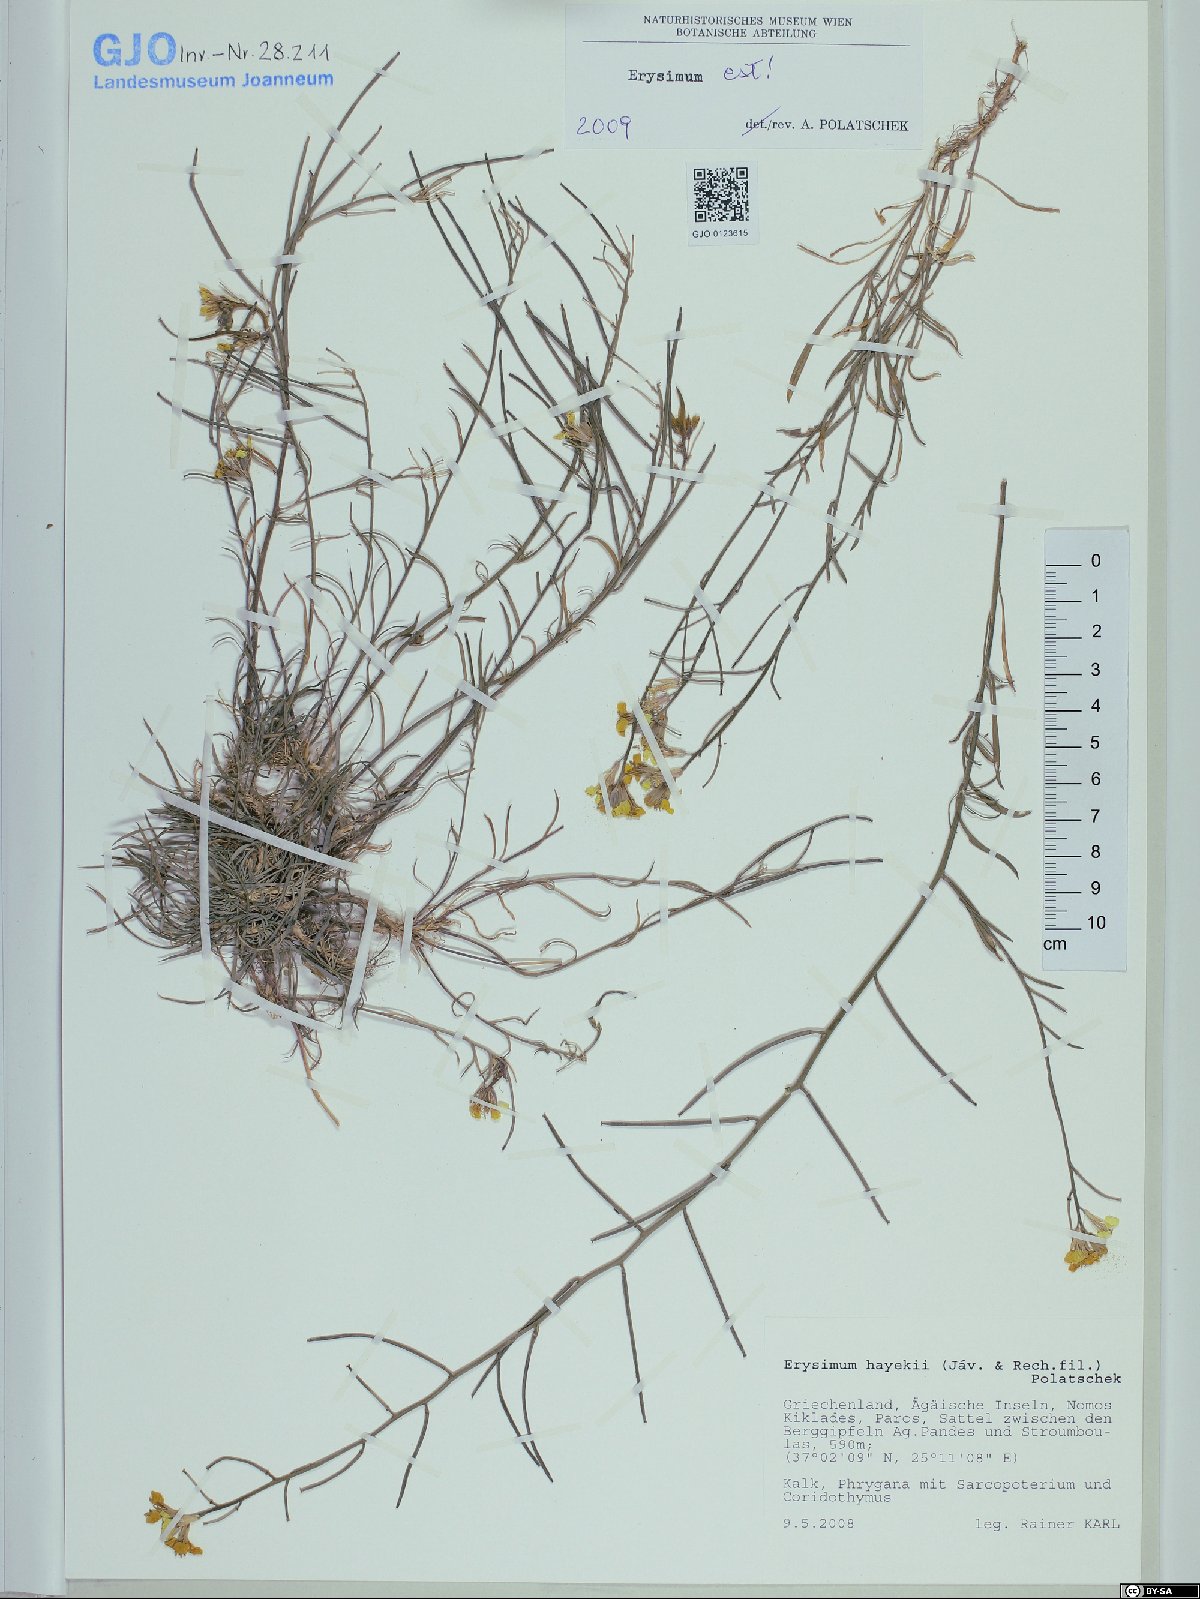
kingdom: Plantae
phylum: Tracheophyta
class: Magnoliopsida
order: Brassicales
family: Brassicaceae
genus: Erysimum
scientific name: Erysimum pusillum
